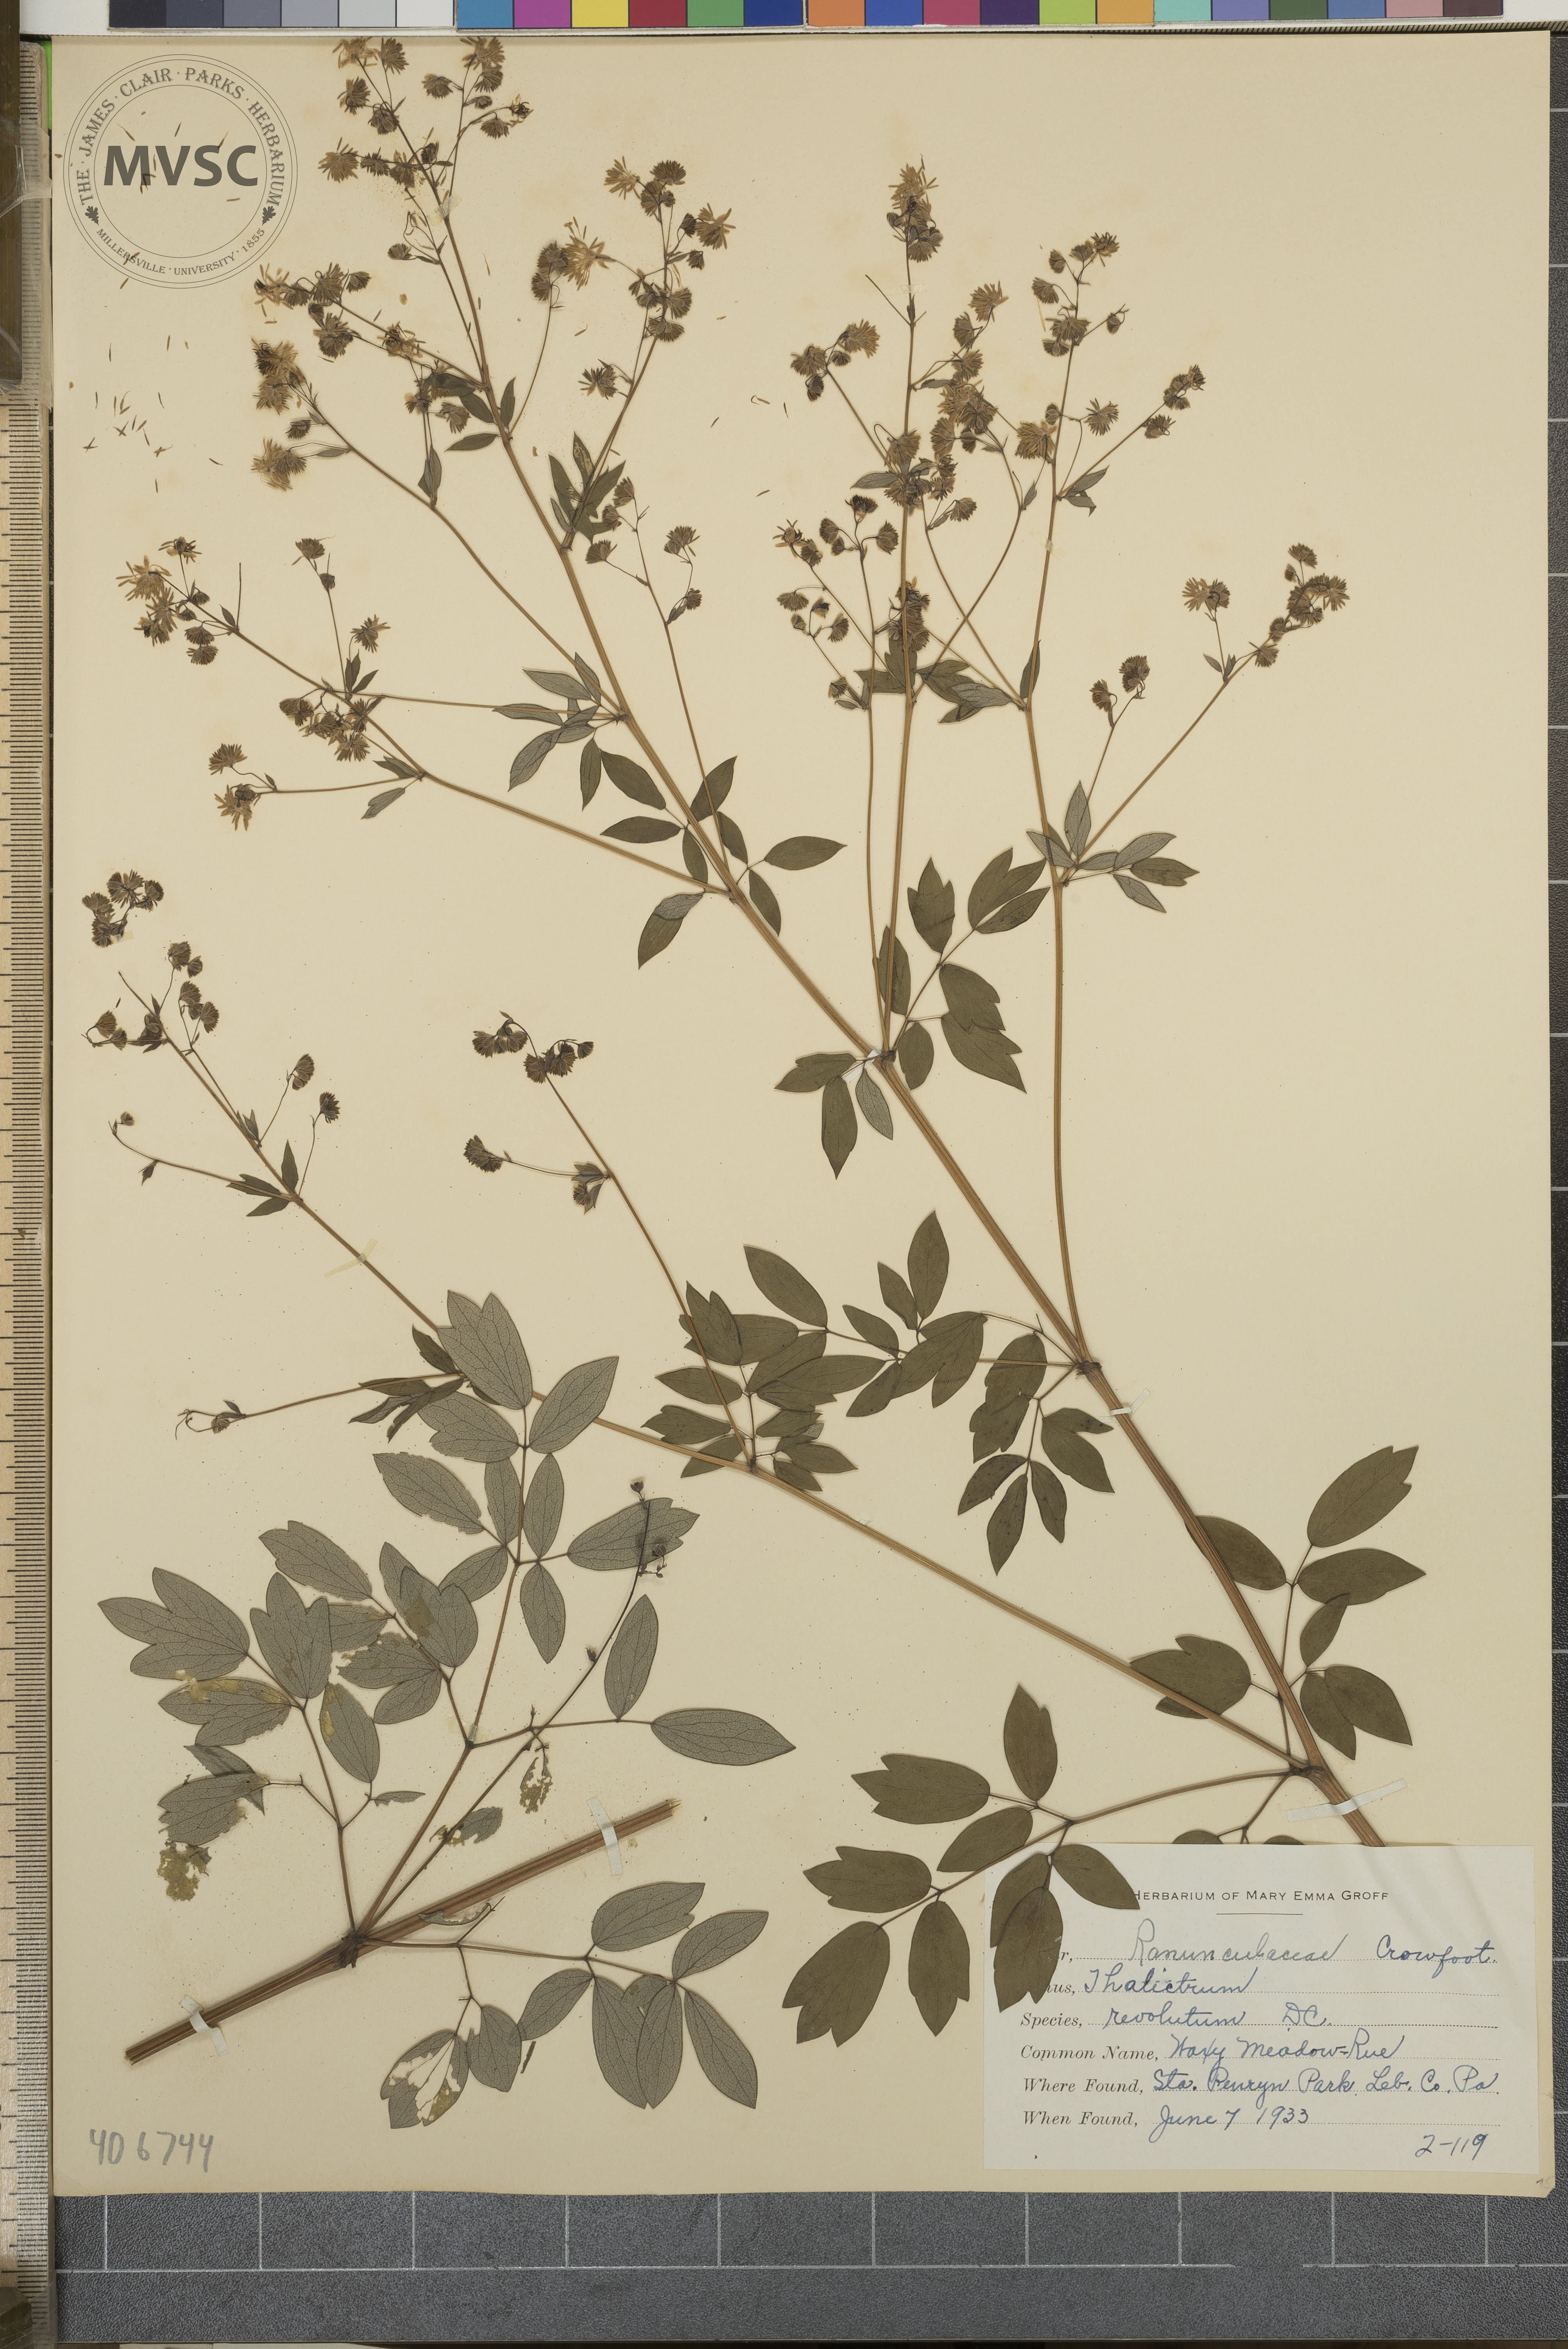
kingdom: Plantae
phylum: Tracheophyta
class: Magnoliopsida
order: Ranunculales
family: Ranunculaceae
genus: Thalictrum
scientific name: Thalictrum revolutum
